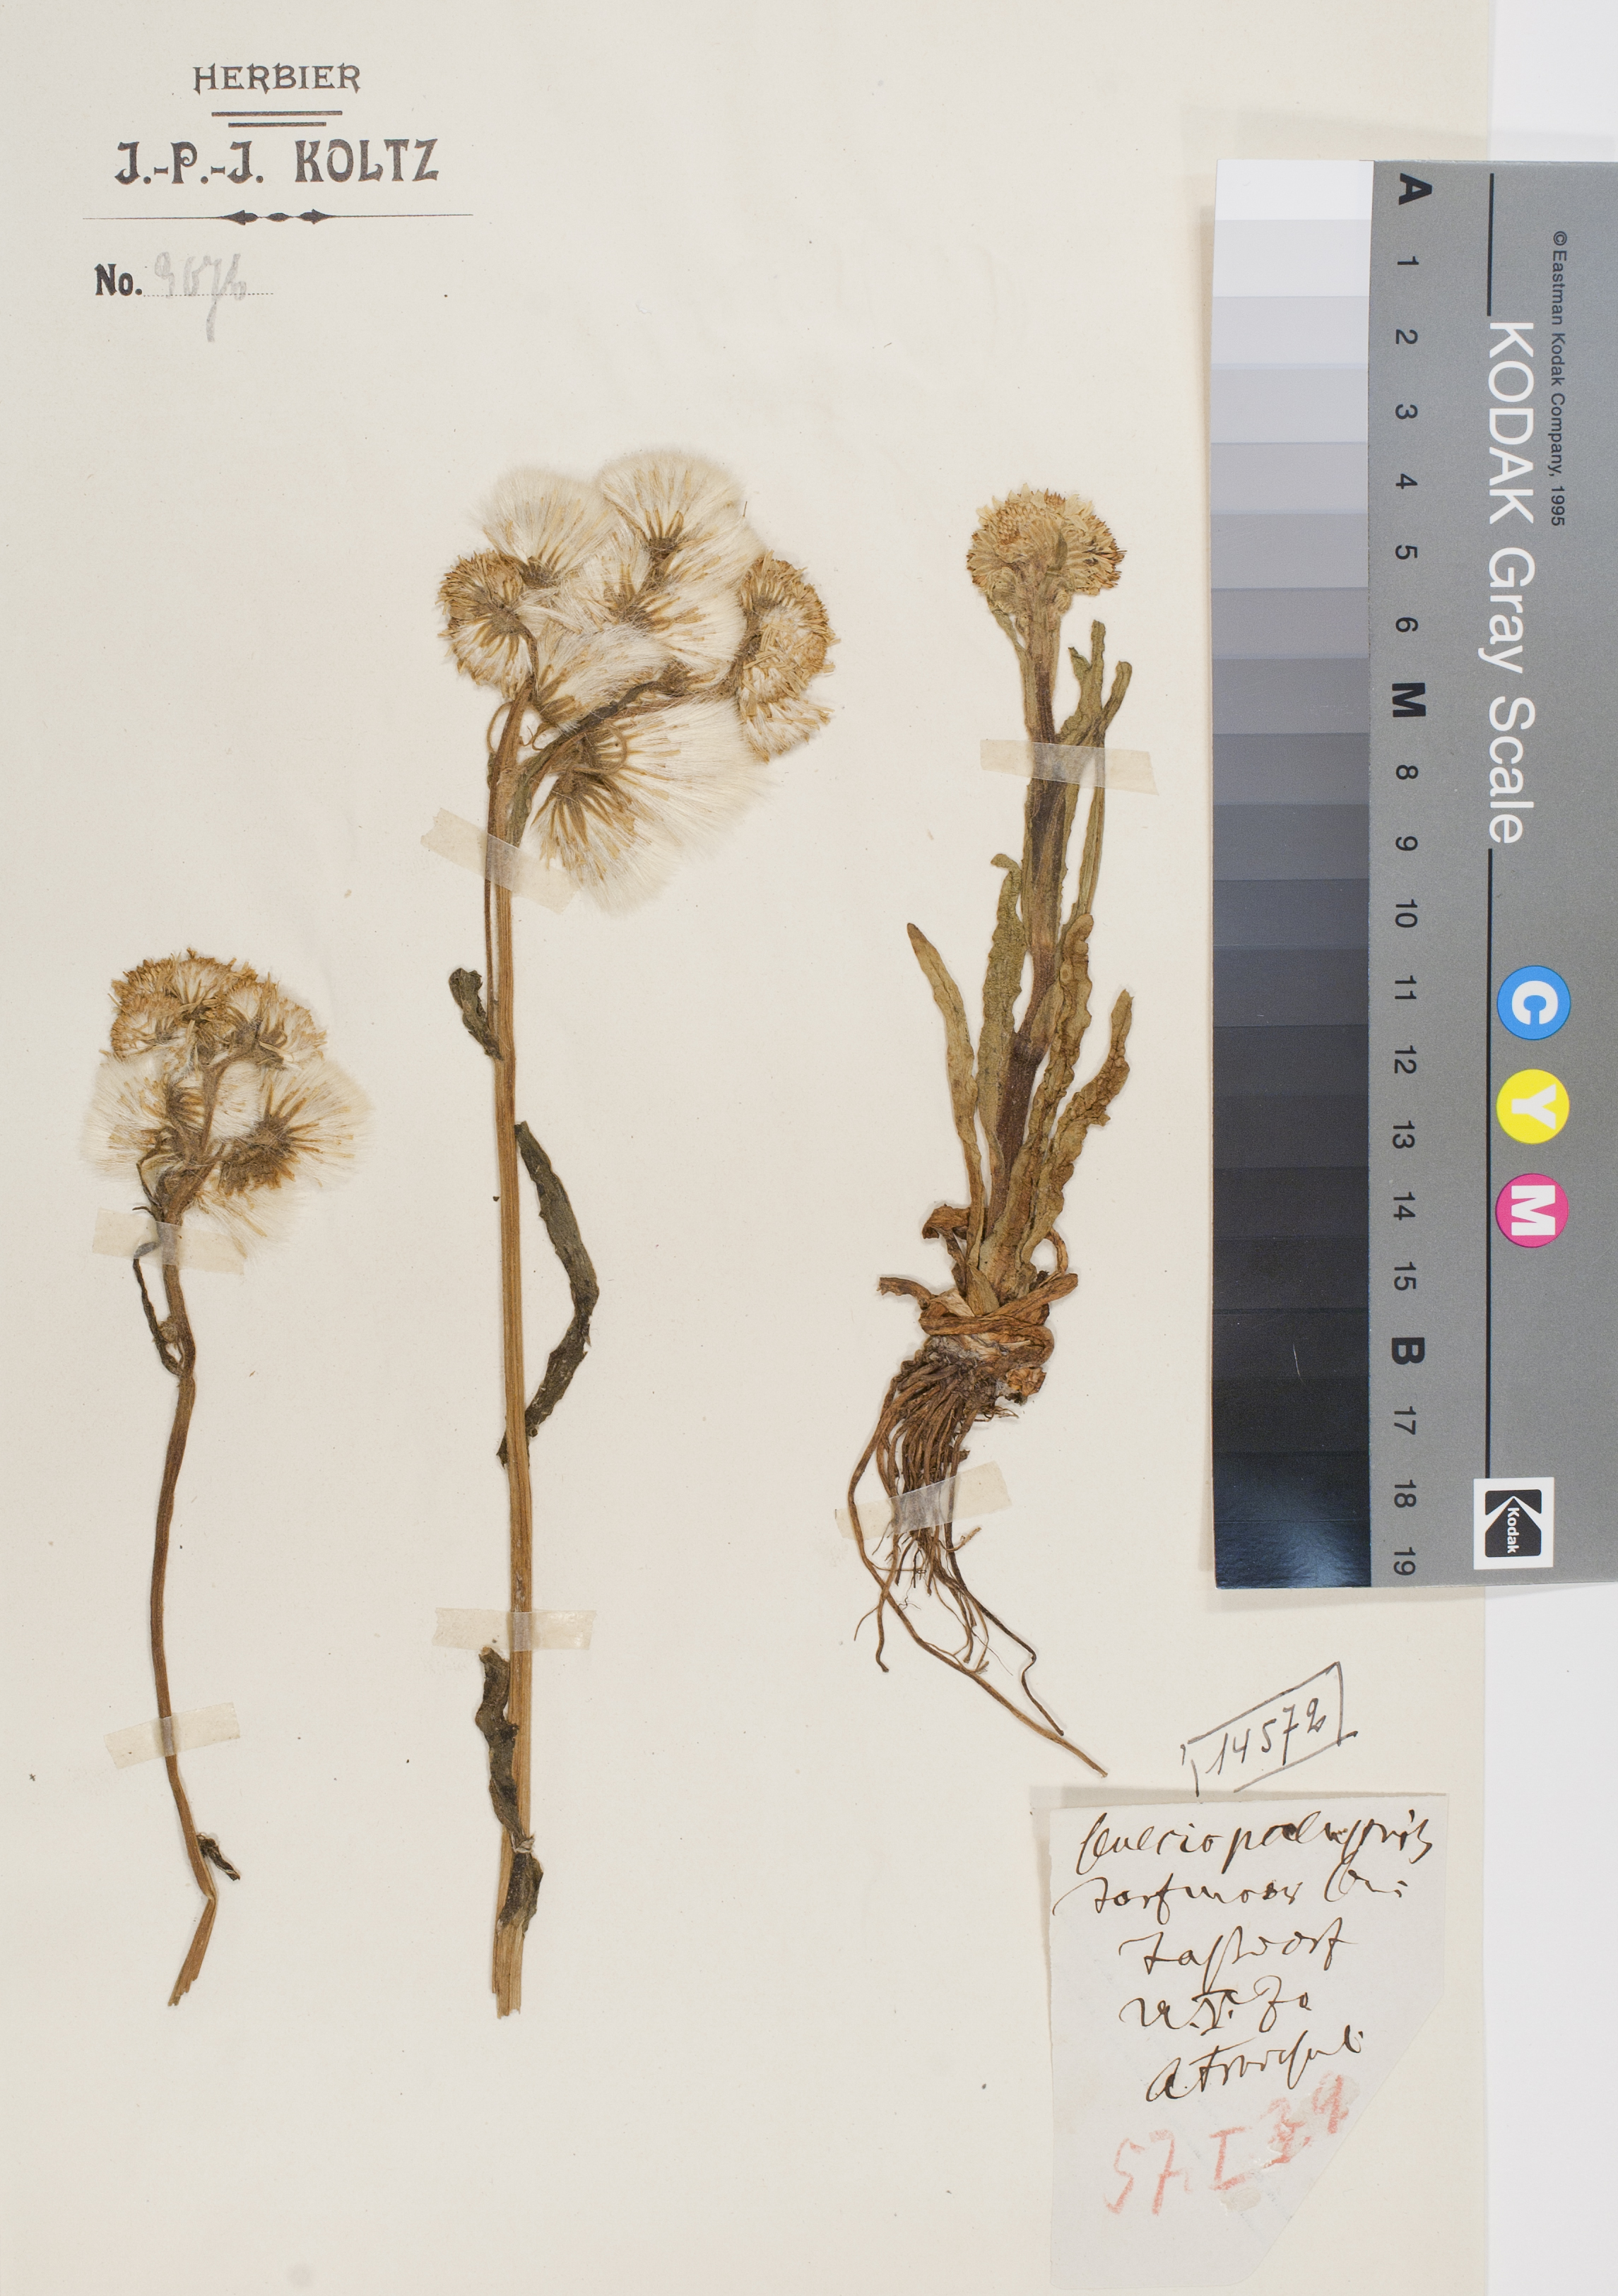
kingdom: Plantae
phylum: Tracheophyta
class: Magnoliopsida
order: Asterales
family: Asteraceae
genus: Senecio
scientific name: Senecio
